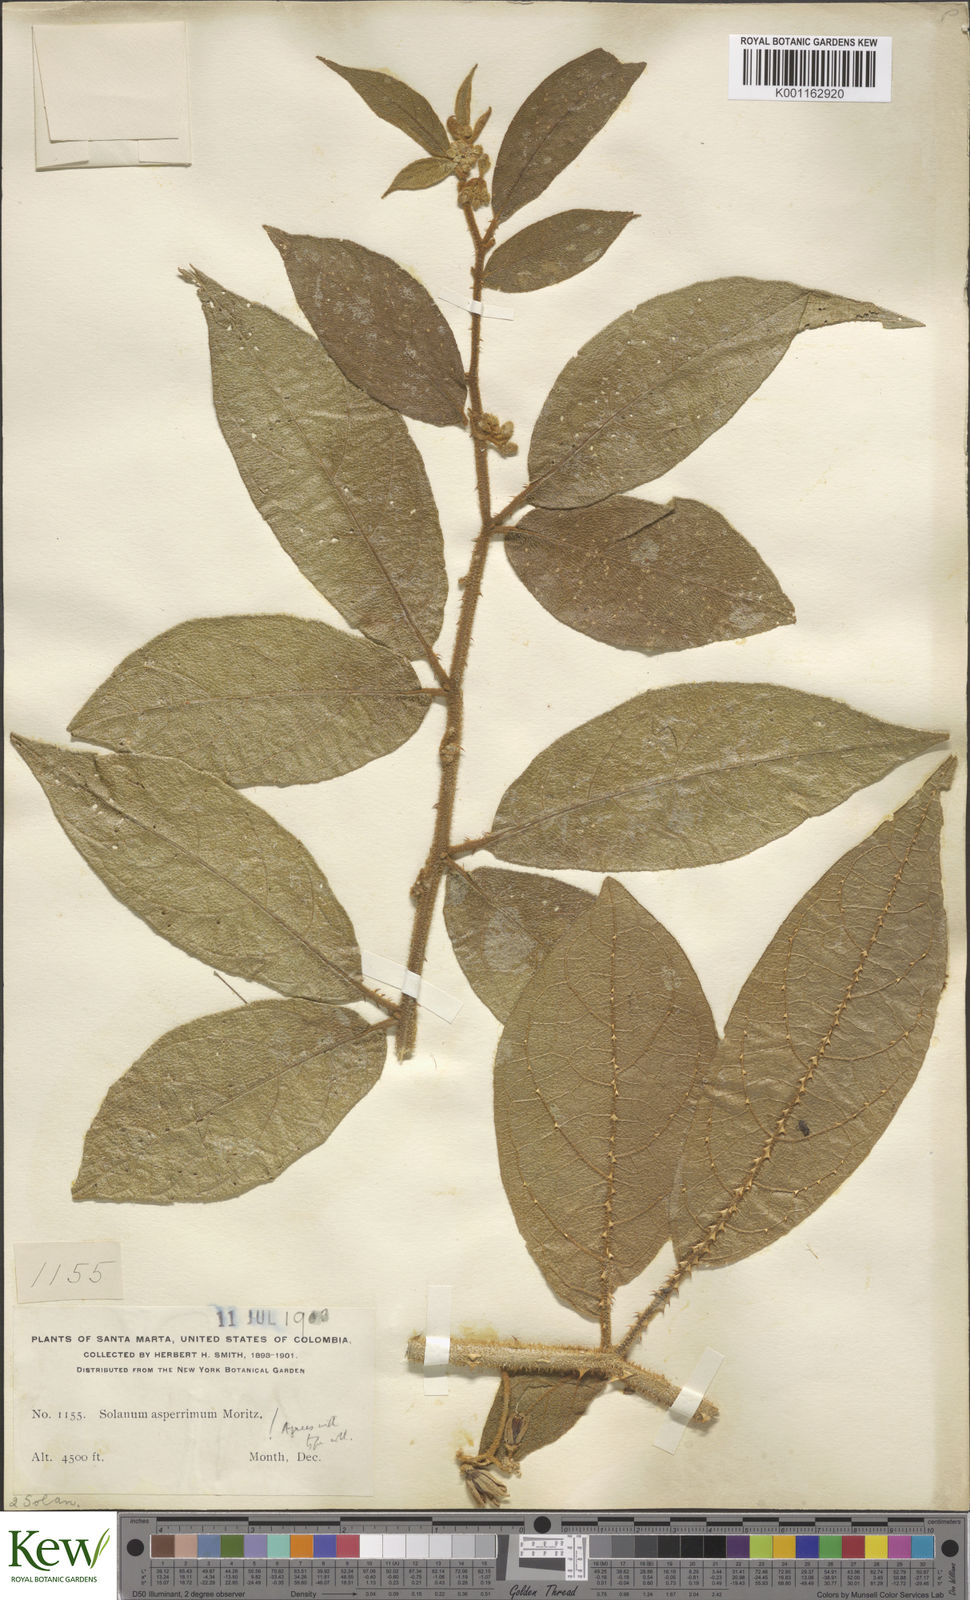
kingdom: Plantae
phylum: Tracheophyta
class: Magnoliopsida
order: Solanales
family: Solanaceae
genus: Solanum
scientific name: Solanum aturense
